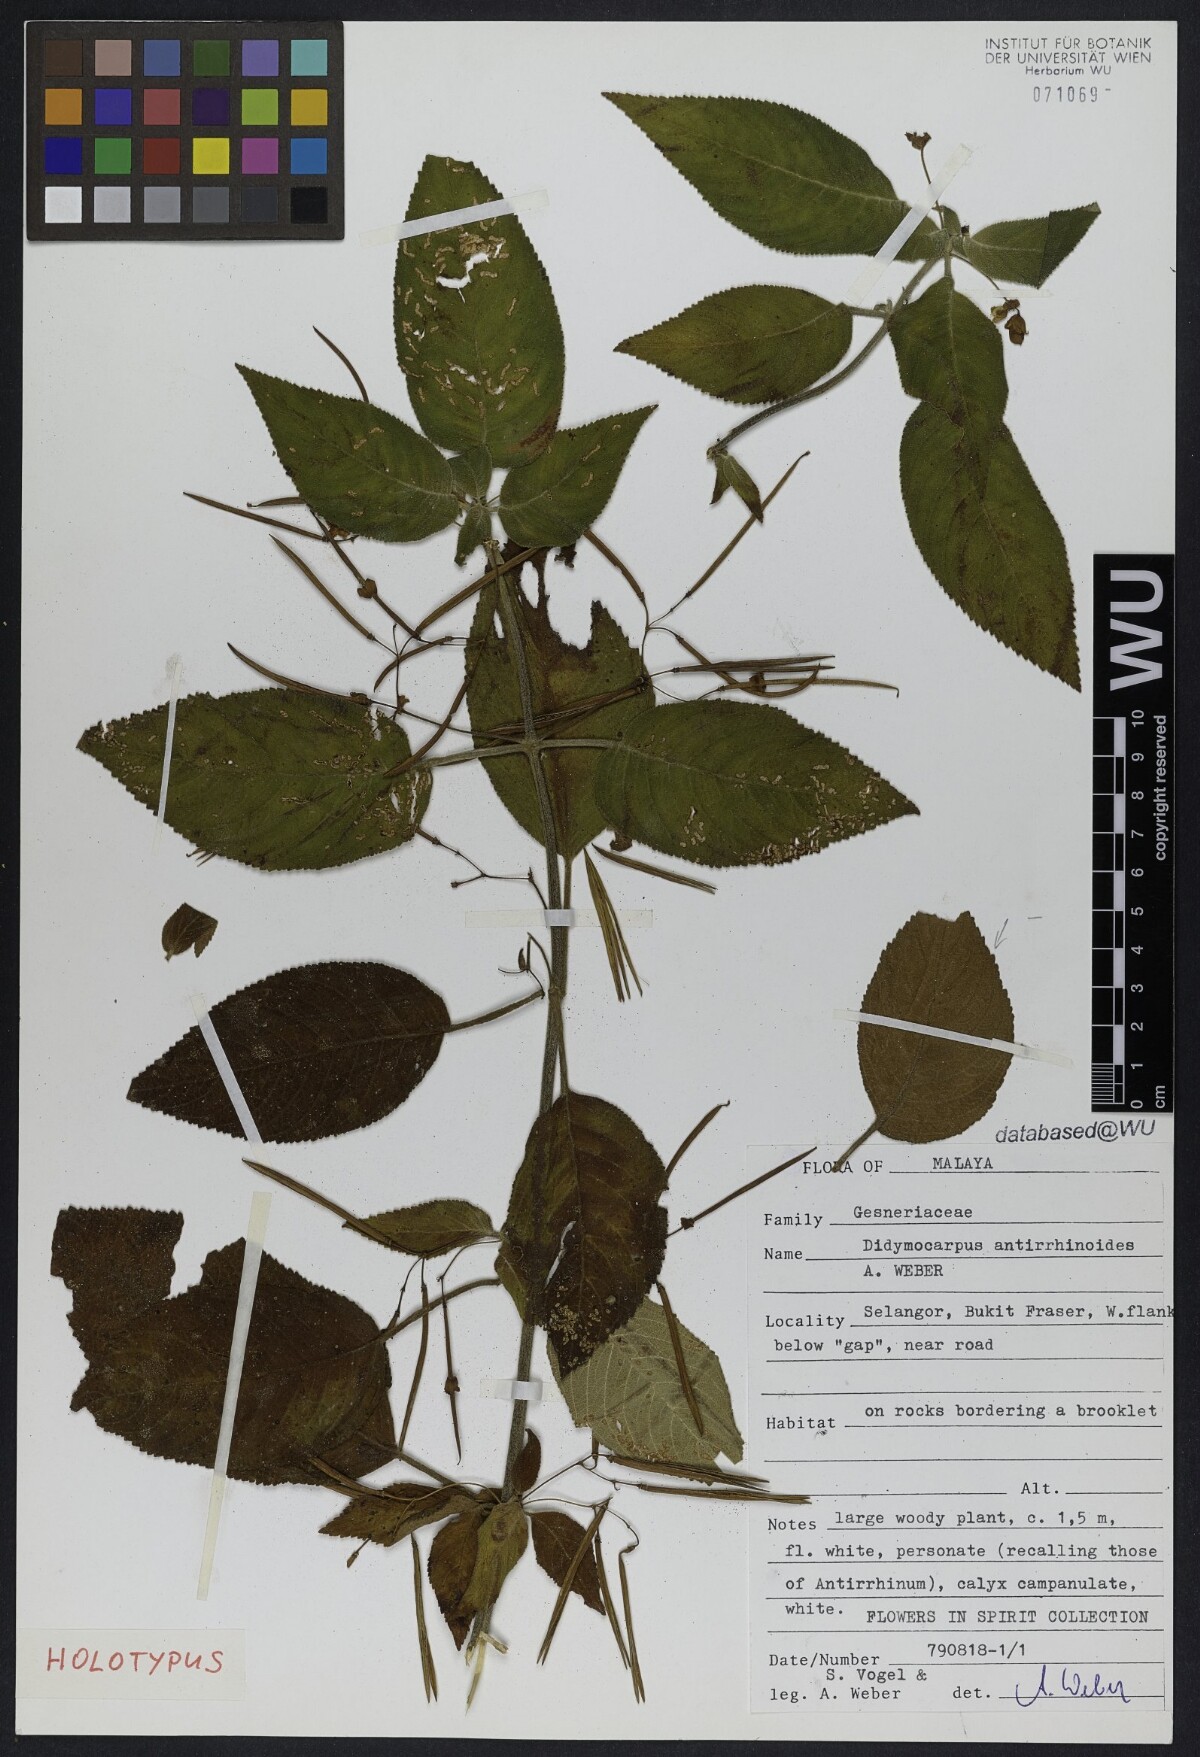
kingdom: Plantae
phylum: Tracheophyta
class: Magnoliopsida
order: Lamiales
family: Gesneriaceae
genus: Didymocarpus
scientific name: Didymocarpus antirrhinoides
